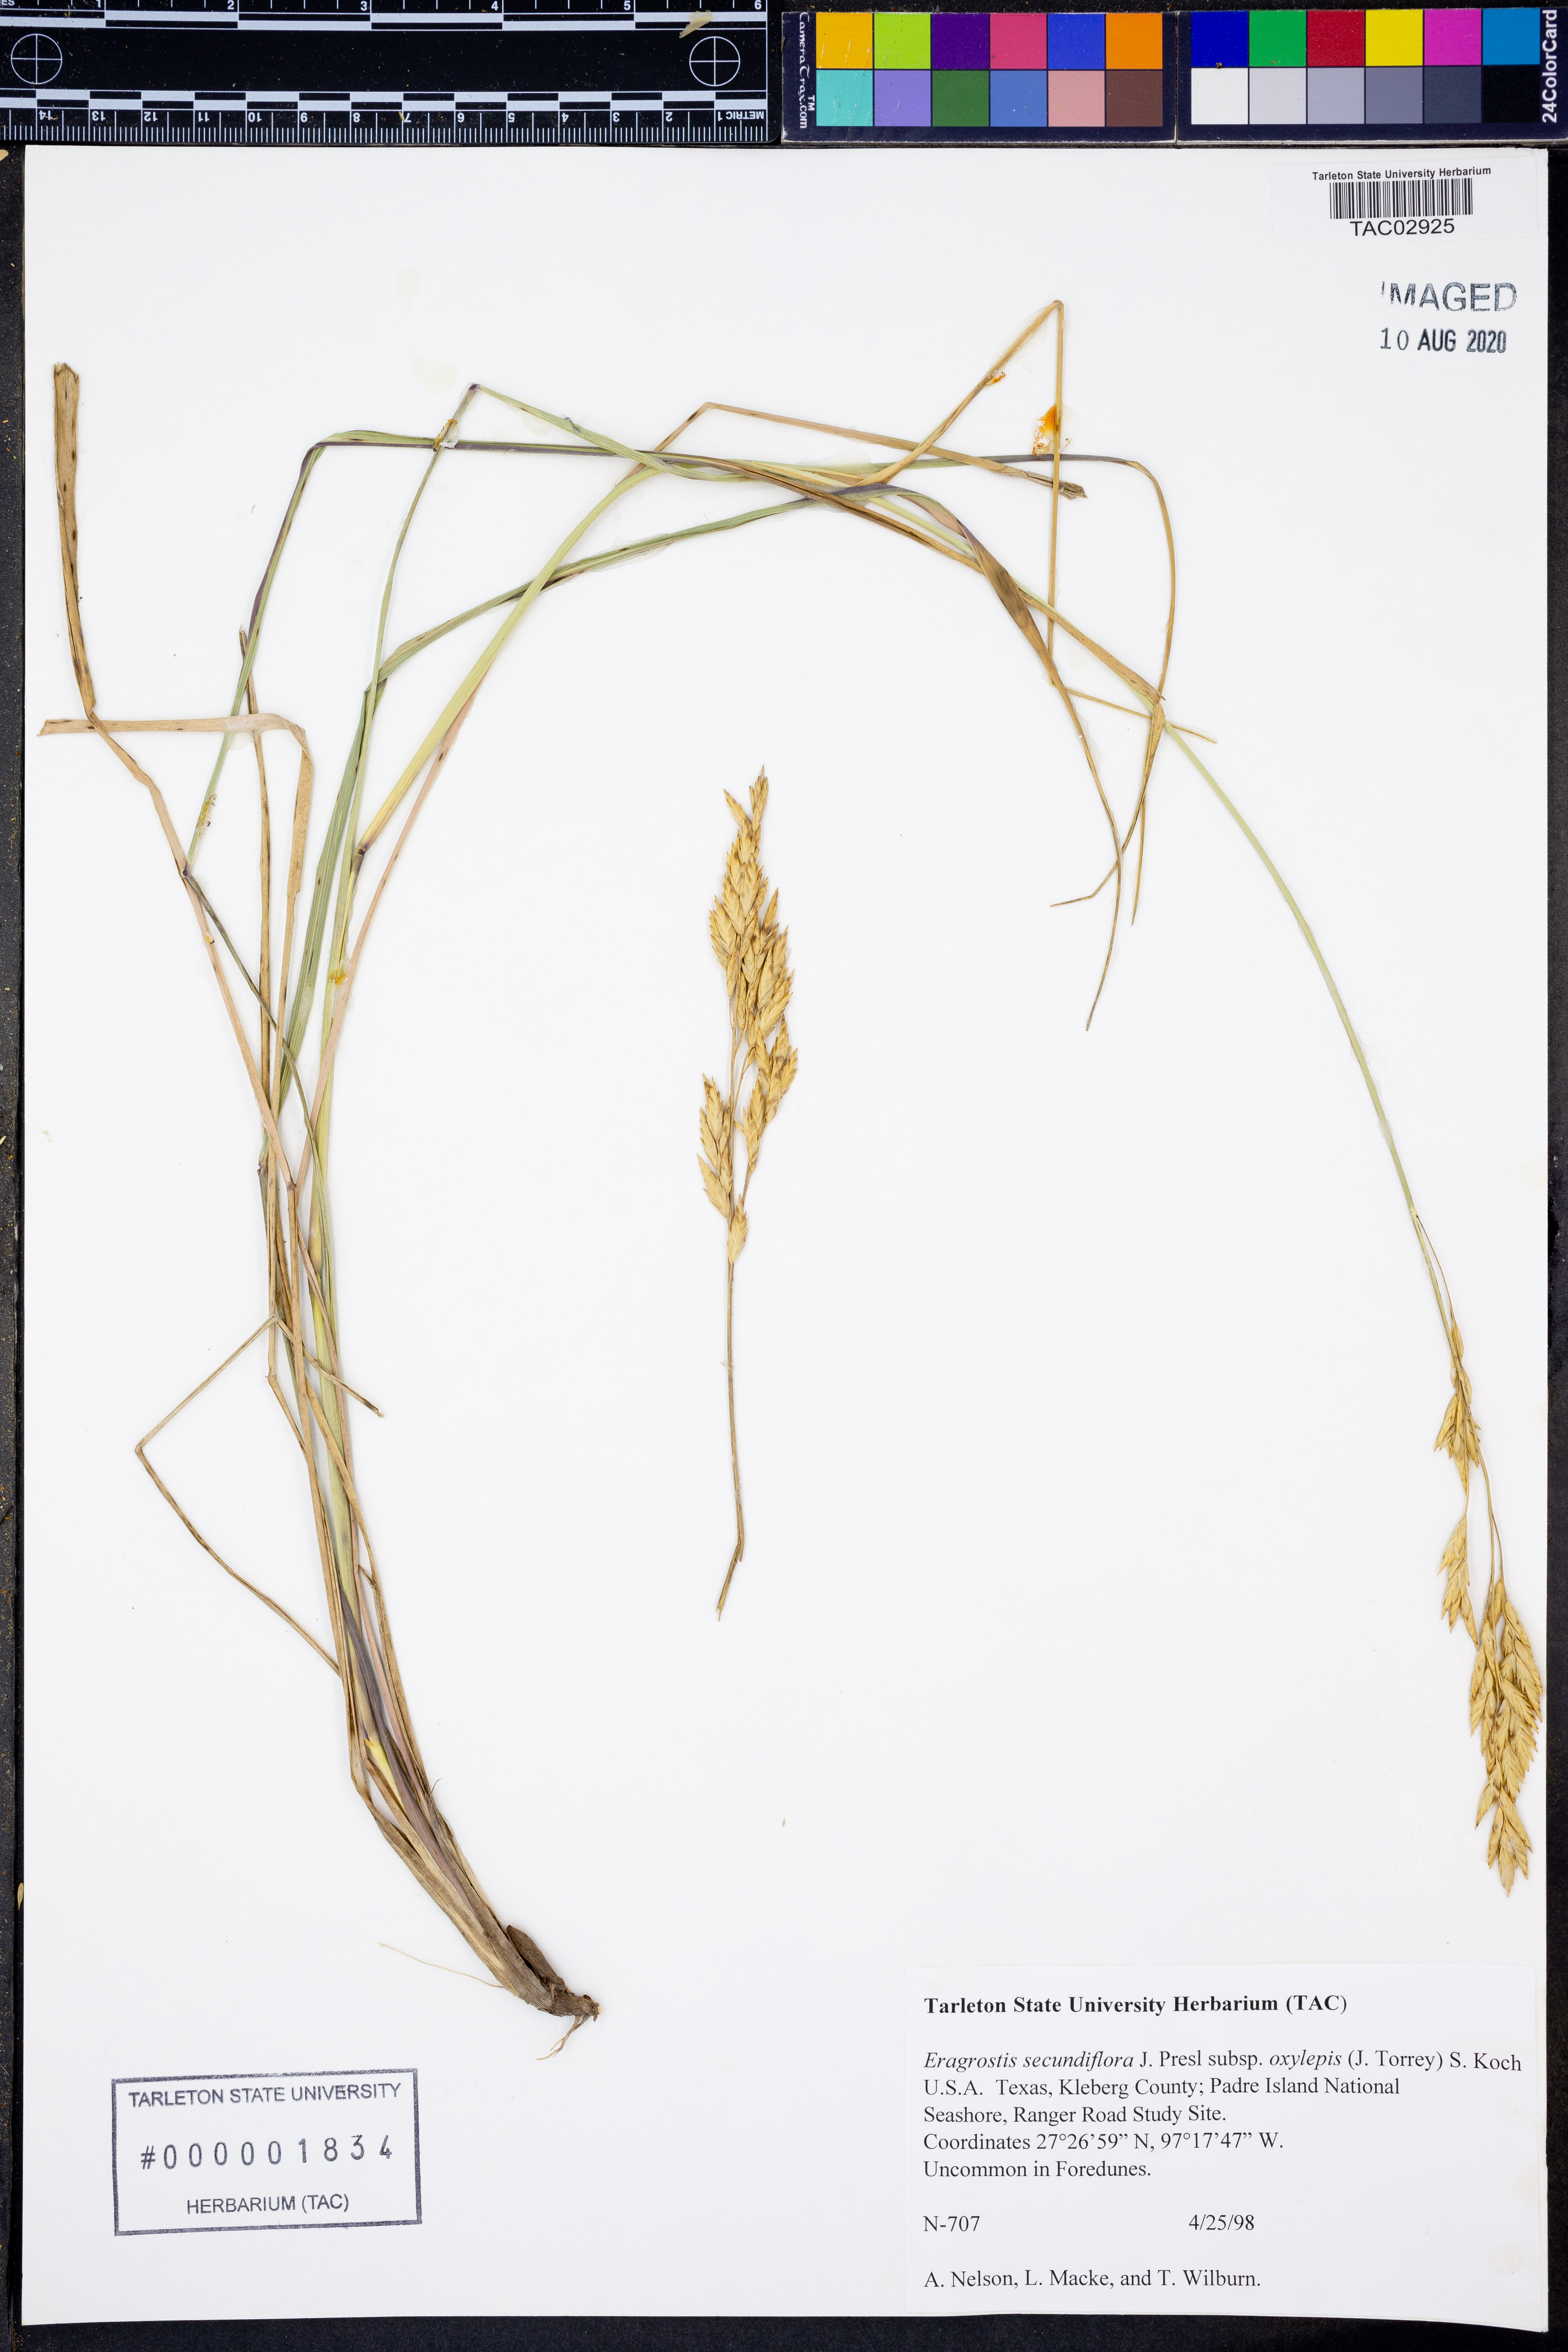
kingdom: Plantae
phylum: Tracheophyta
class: Liliopsida
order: Poales
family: Poaceae
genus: Eragrostis
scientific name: Eragrostis secundiflora
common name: Red love grass
